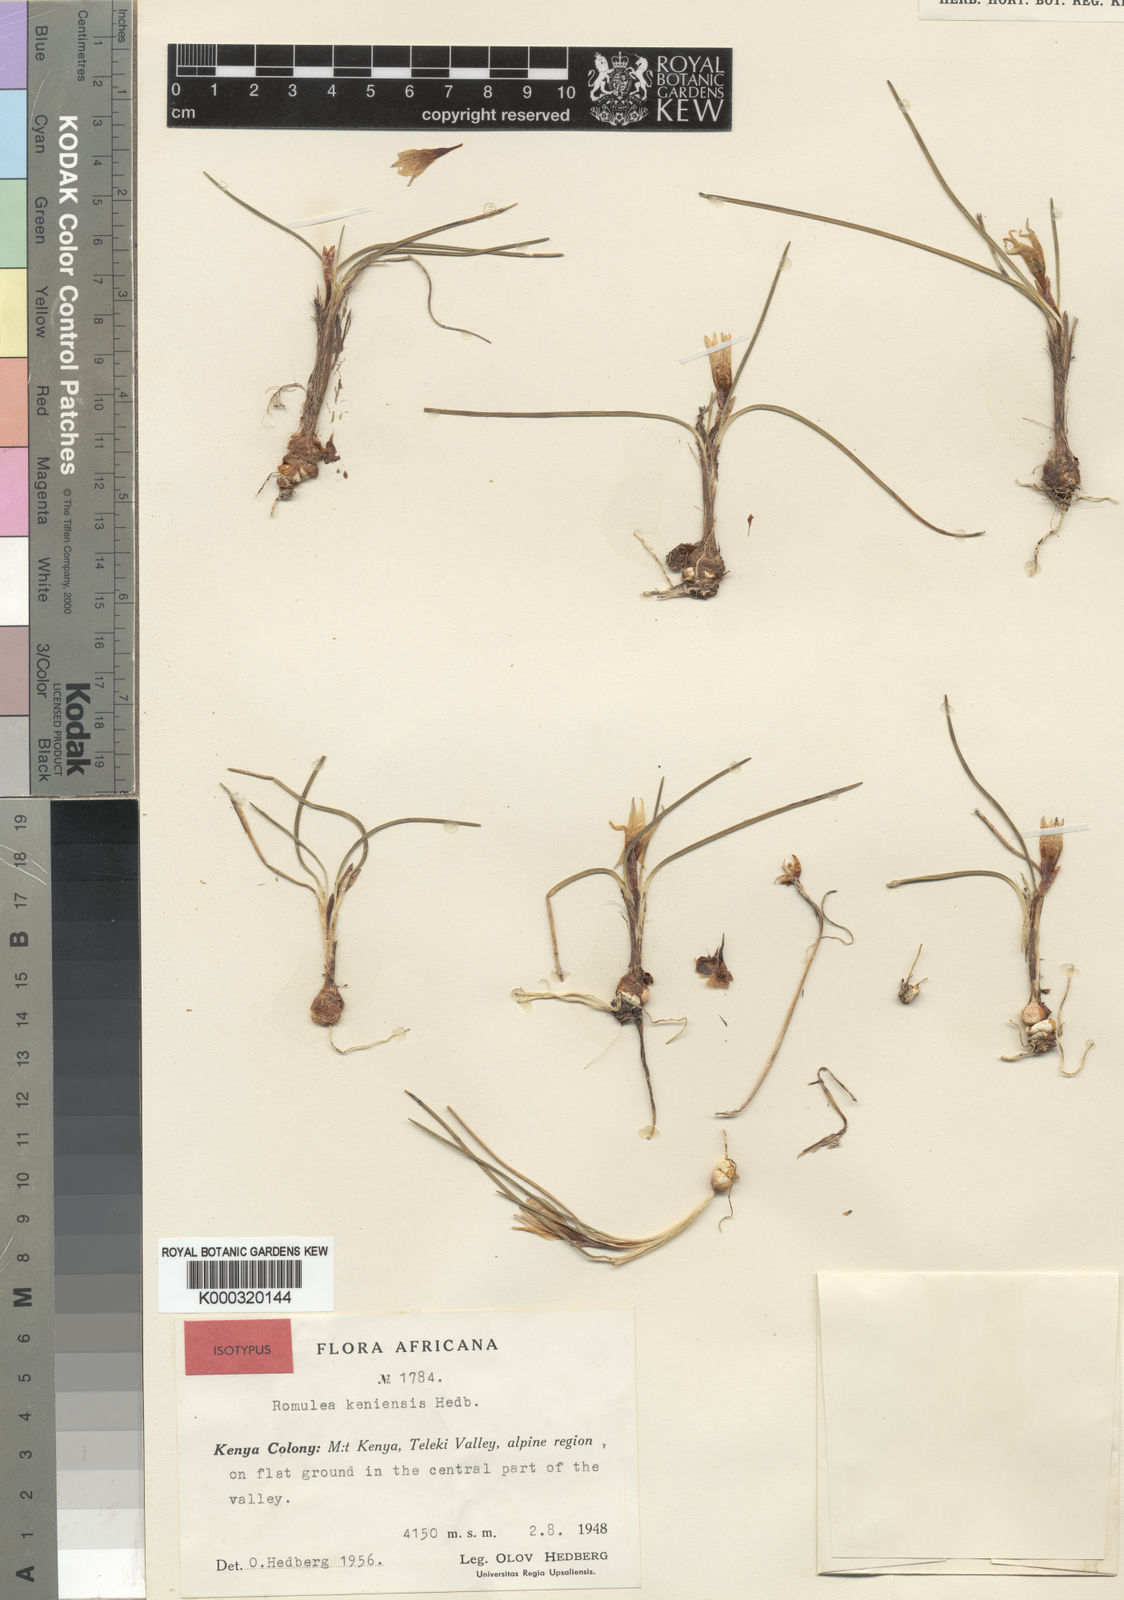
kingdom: Plantae
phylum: Tracheophyta
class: Liliopsida
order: Asparagales
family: Iridaceae
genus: Romulea
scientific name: Romulea congoensis
